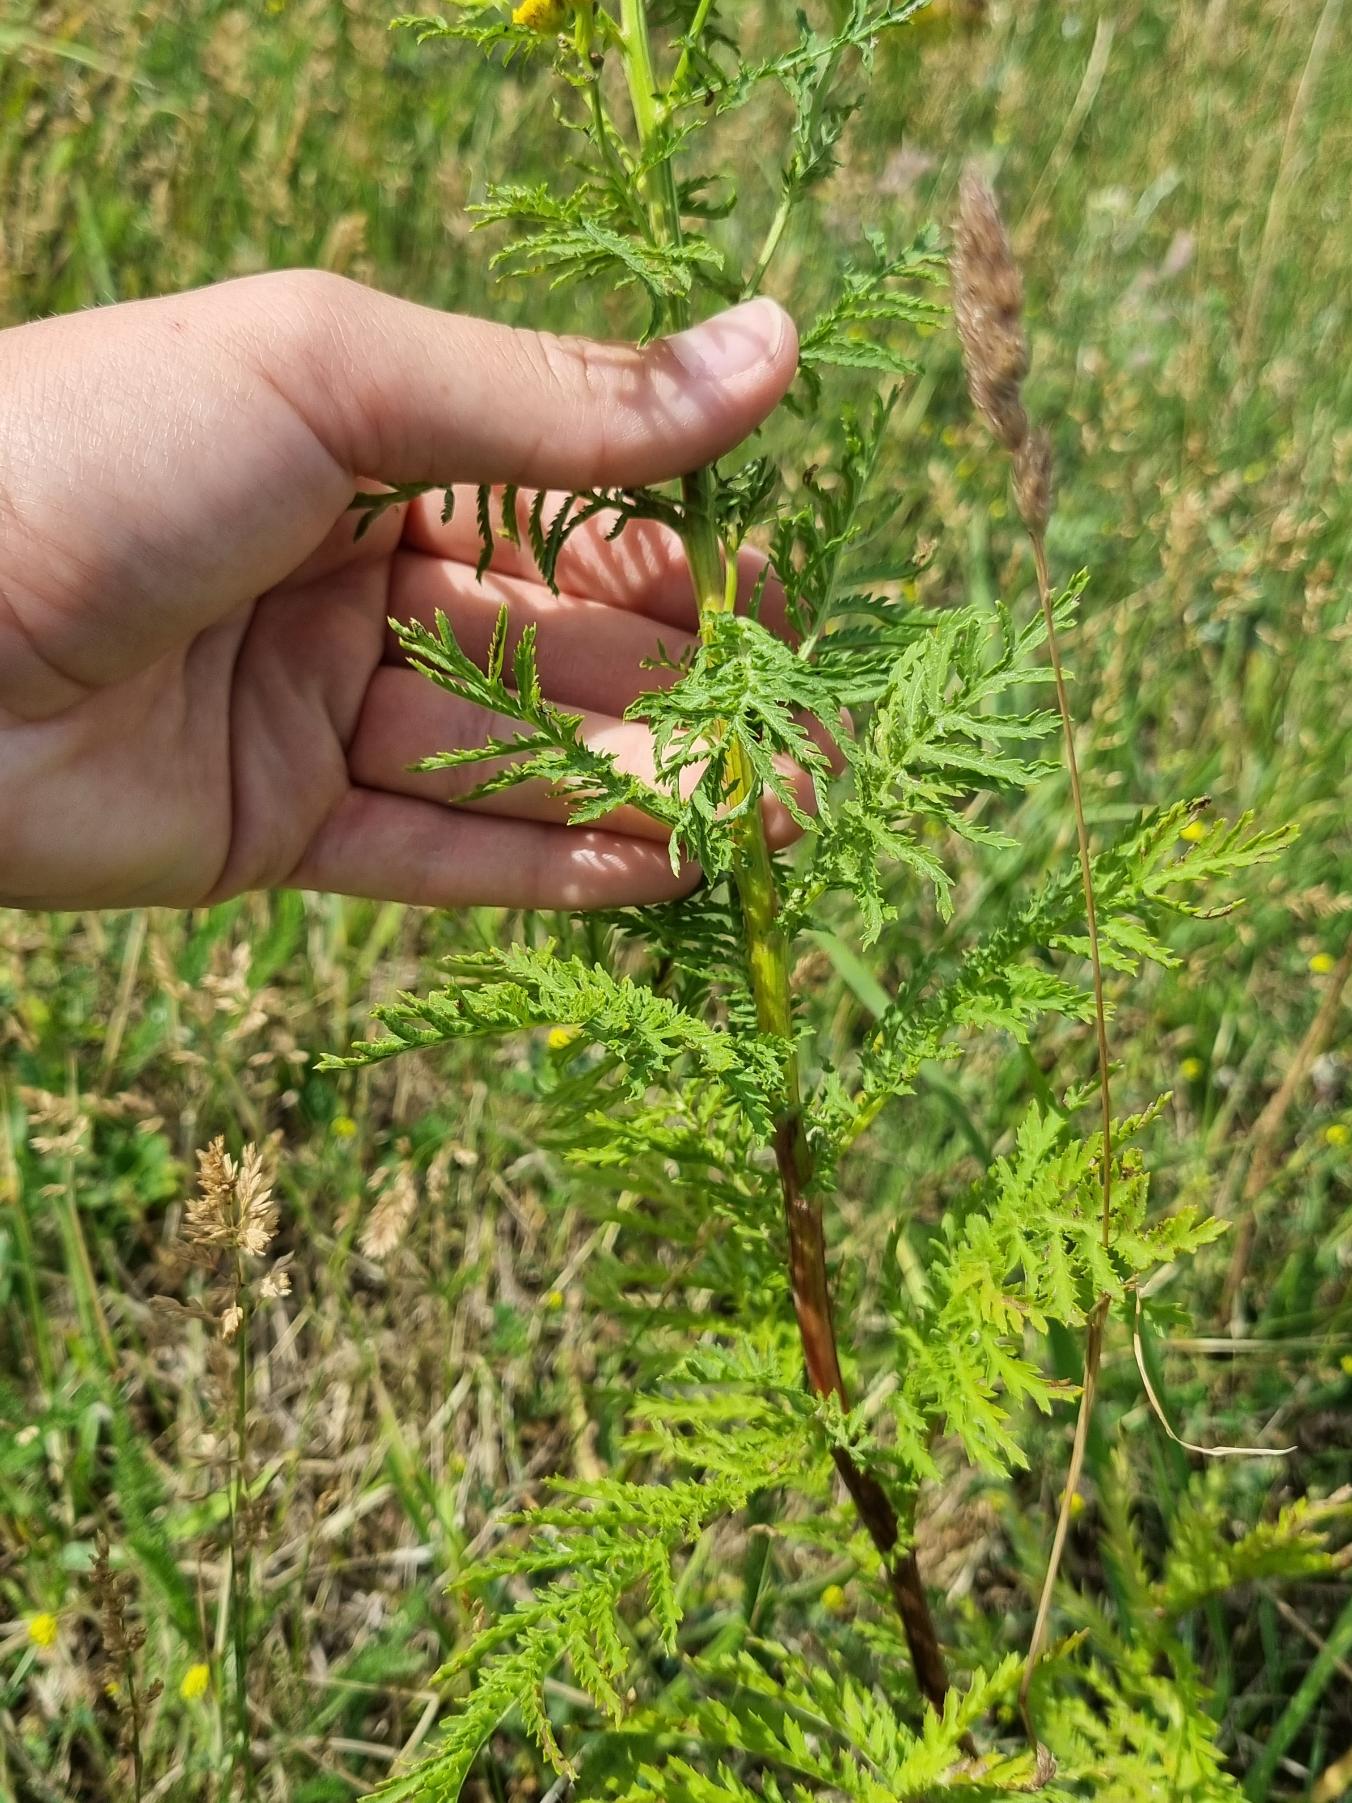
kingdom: Plantae
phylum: Tracheophyta
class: Magnoliopsida
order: Asterales
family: Asteraceae
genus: Tanacetum
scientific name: Tanacetum vulgare
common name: Rejnfan
